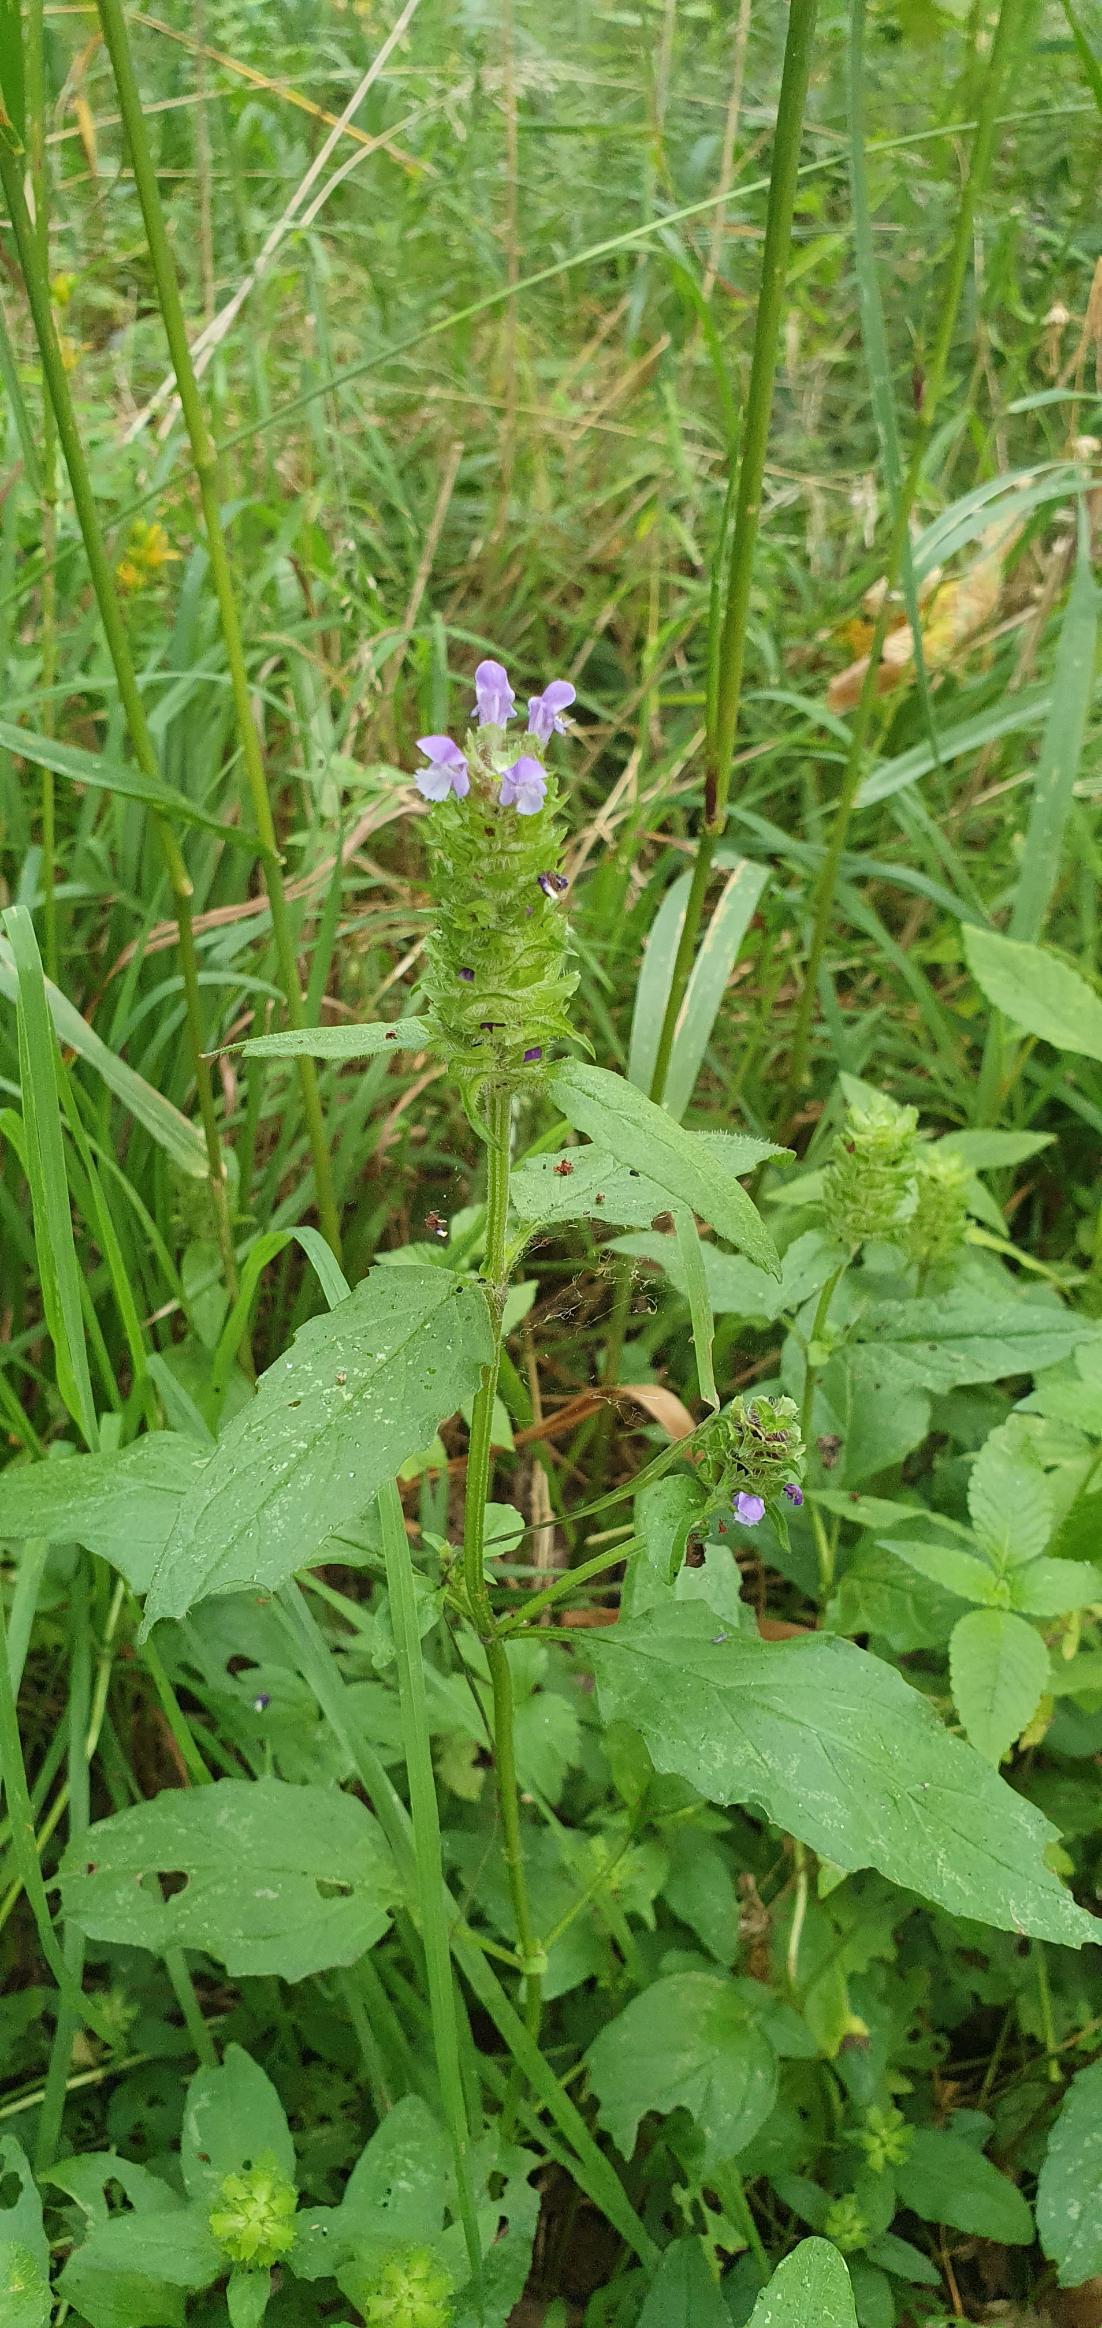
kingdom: Plantae
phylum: Tracheophyta
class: Magnoliopsida
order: Lamiales
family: Lamiaceae
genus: Prunella
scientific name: Prunella
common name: Brunelleslægten
